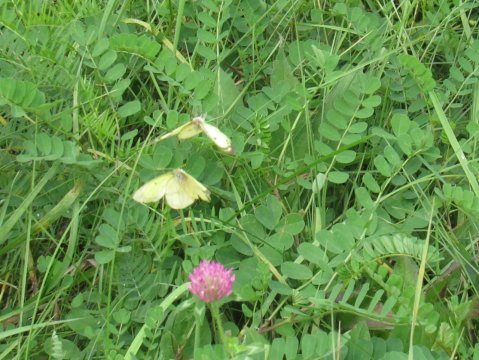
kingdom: Animalia
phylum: Arthropoda
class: Insecta
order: Lepidoptera
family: Pieridae
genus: Colias
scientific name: Colias philodice
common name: Clouded Sulphur
